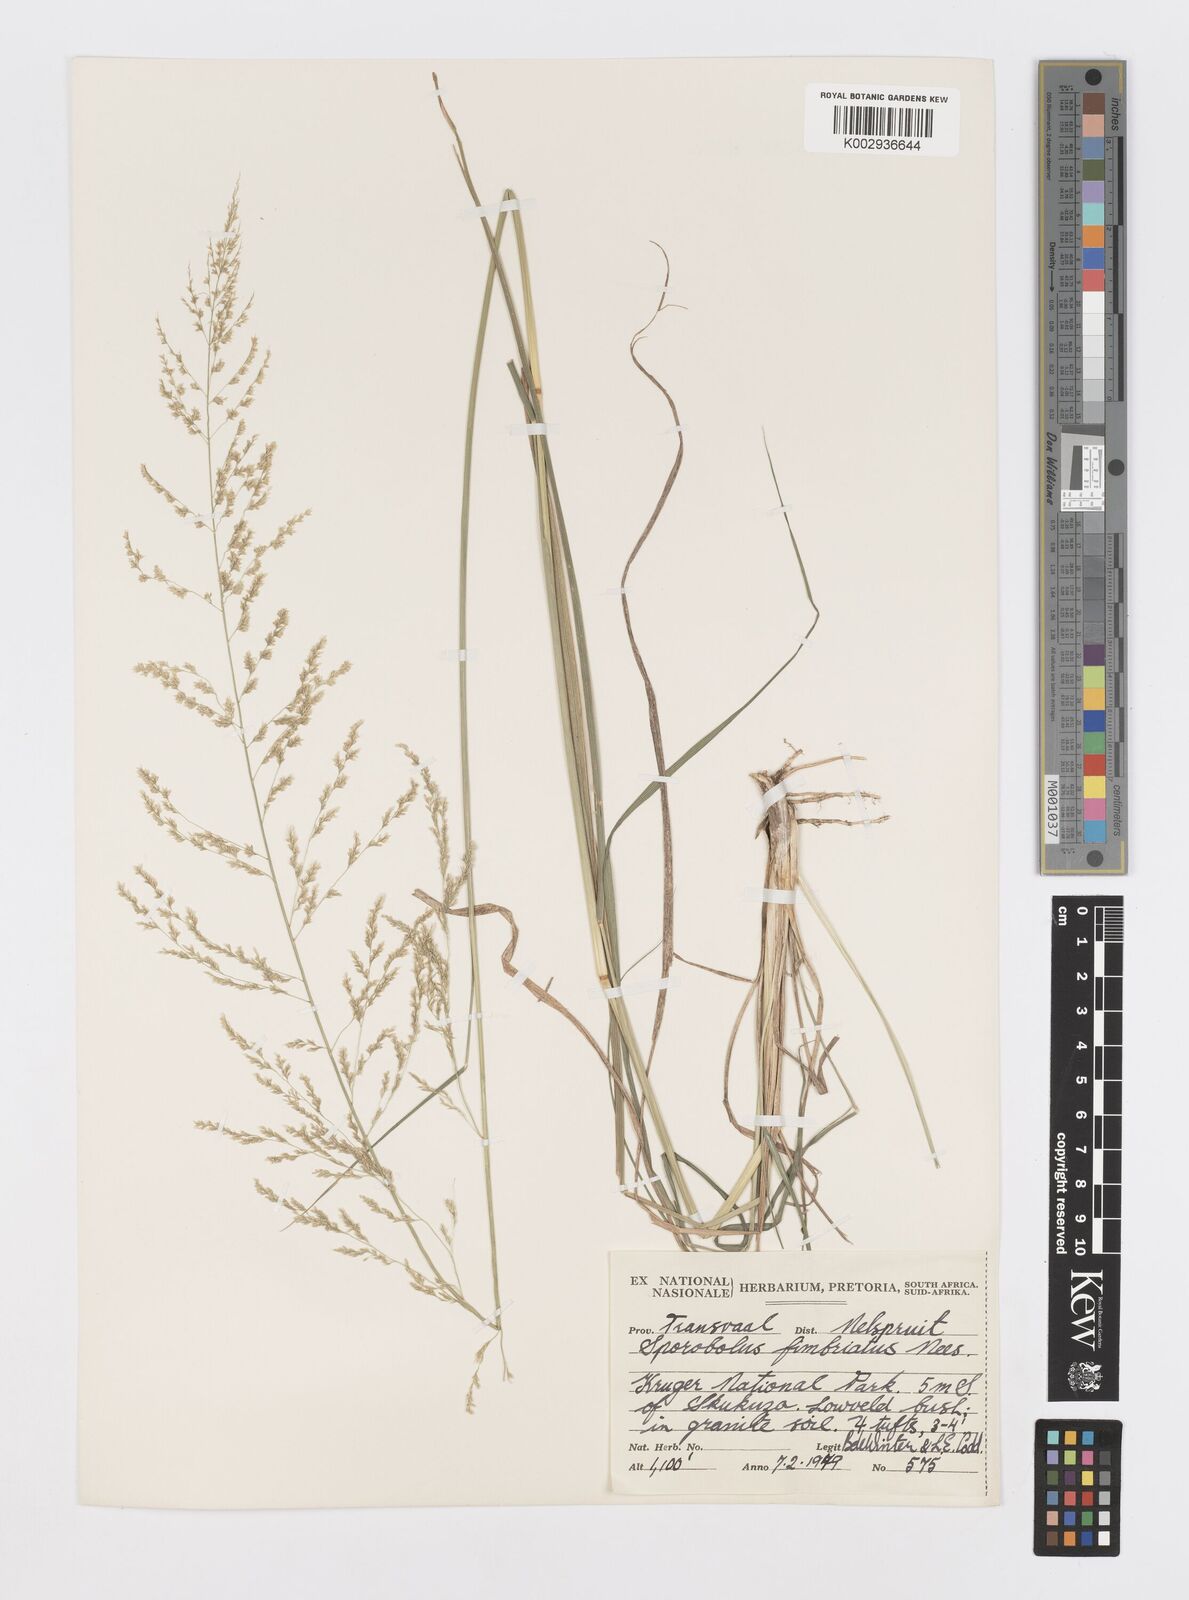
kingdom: Plantae
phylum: Tracheophyta
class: Liliopsida
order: Poales
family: Poaceae
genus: Sporobolus
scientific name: Sporobolus fimbriatus
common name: Fringed dropseed
